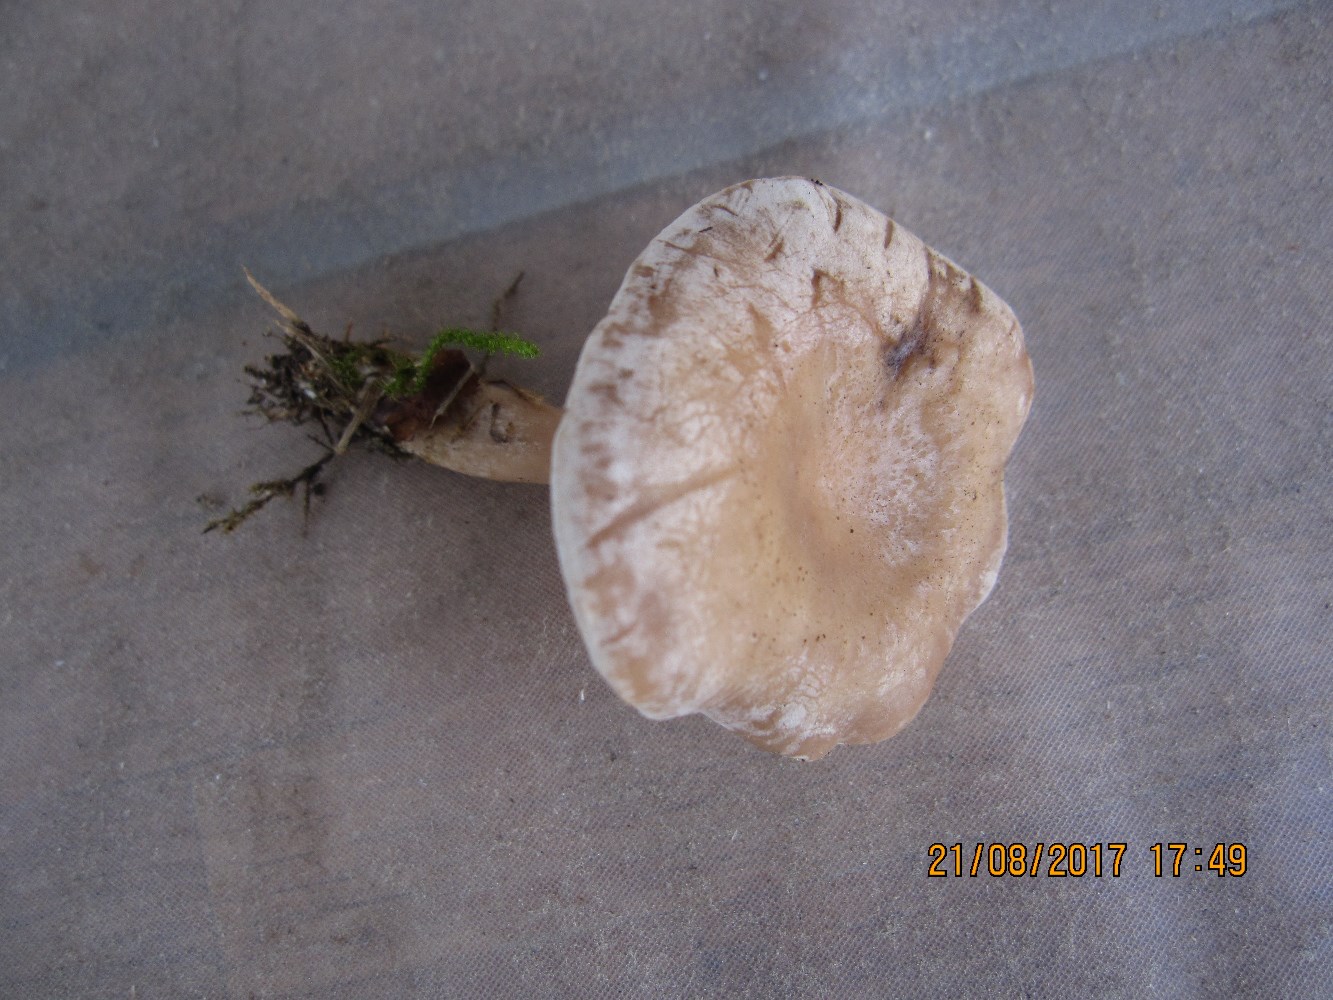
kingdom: Fungi
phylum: Basidiomycota
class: Agaricomycetes
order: Agaricales
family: Tricholomataceae
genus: Clitocybe
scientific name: Clitocybe rivulosa
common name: eng-tragthat
